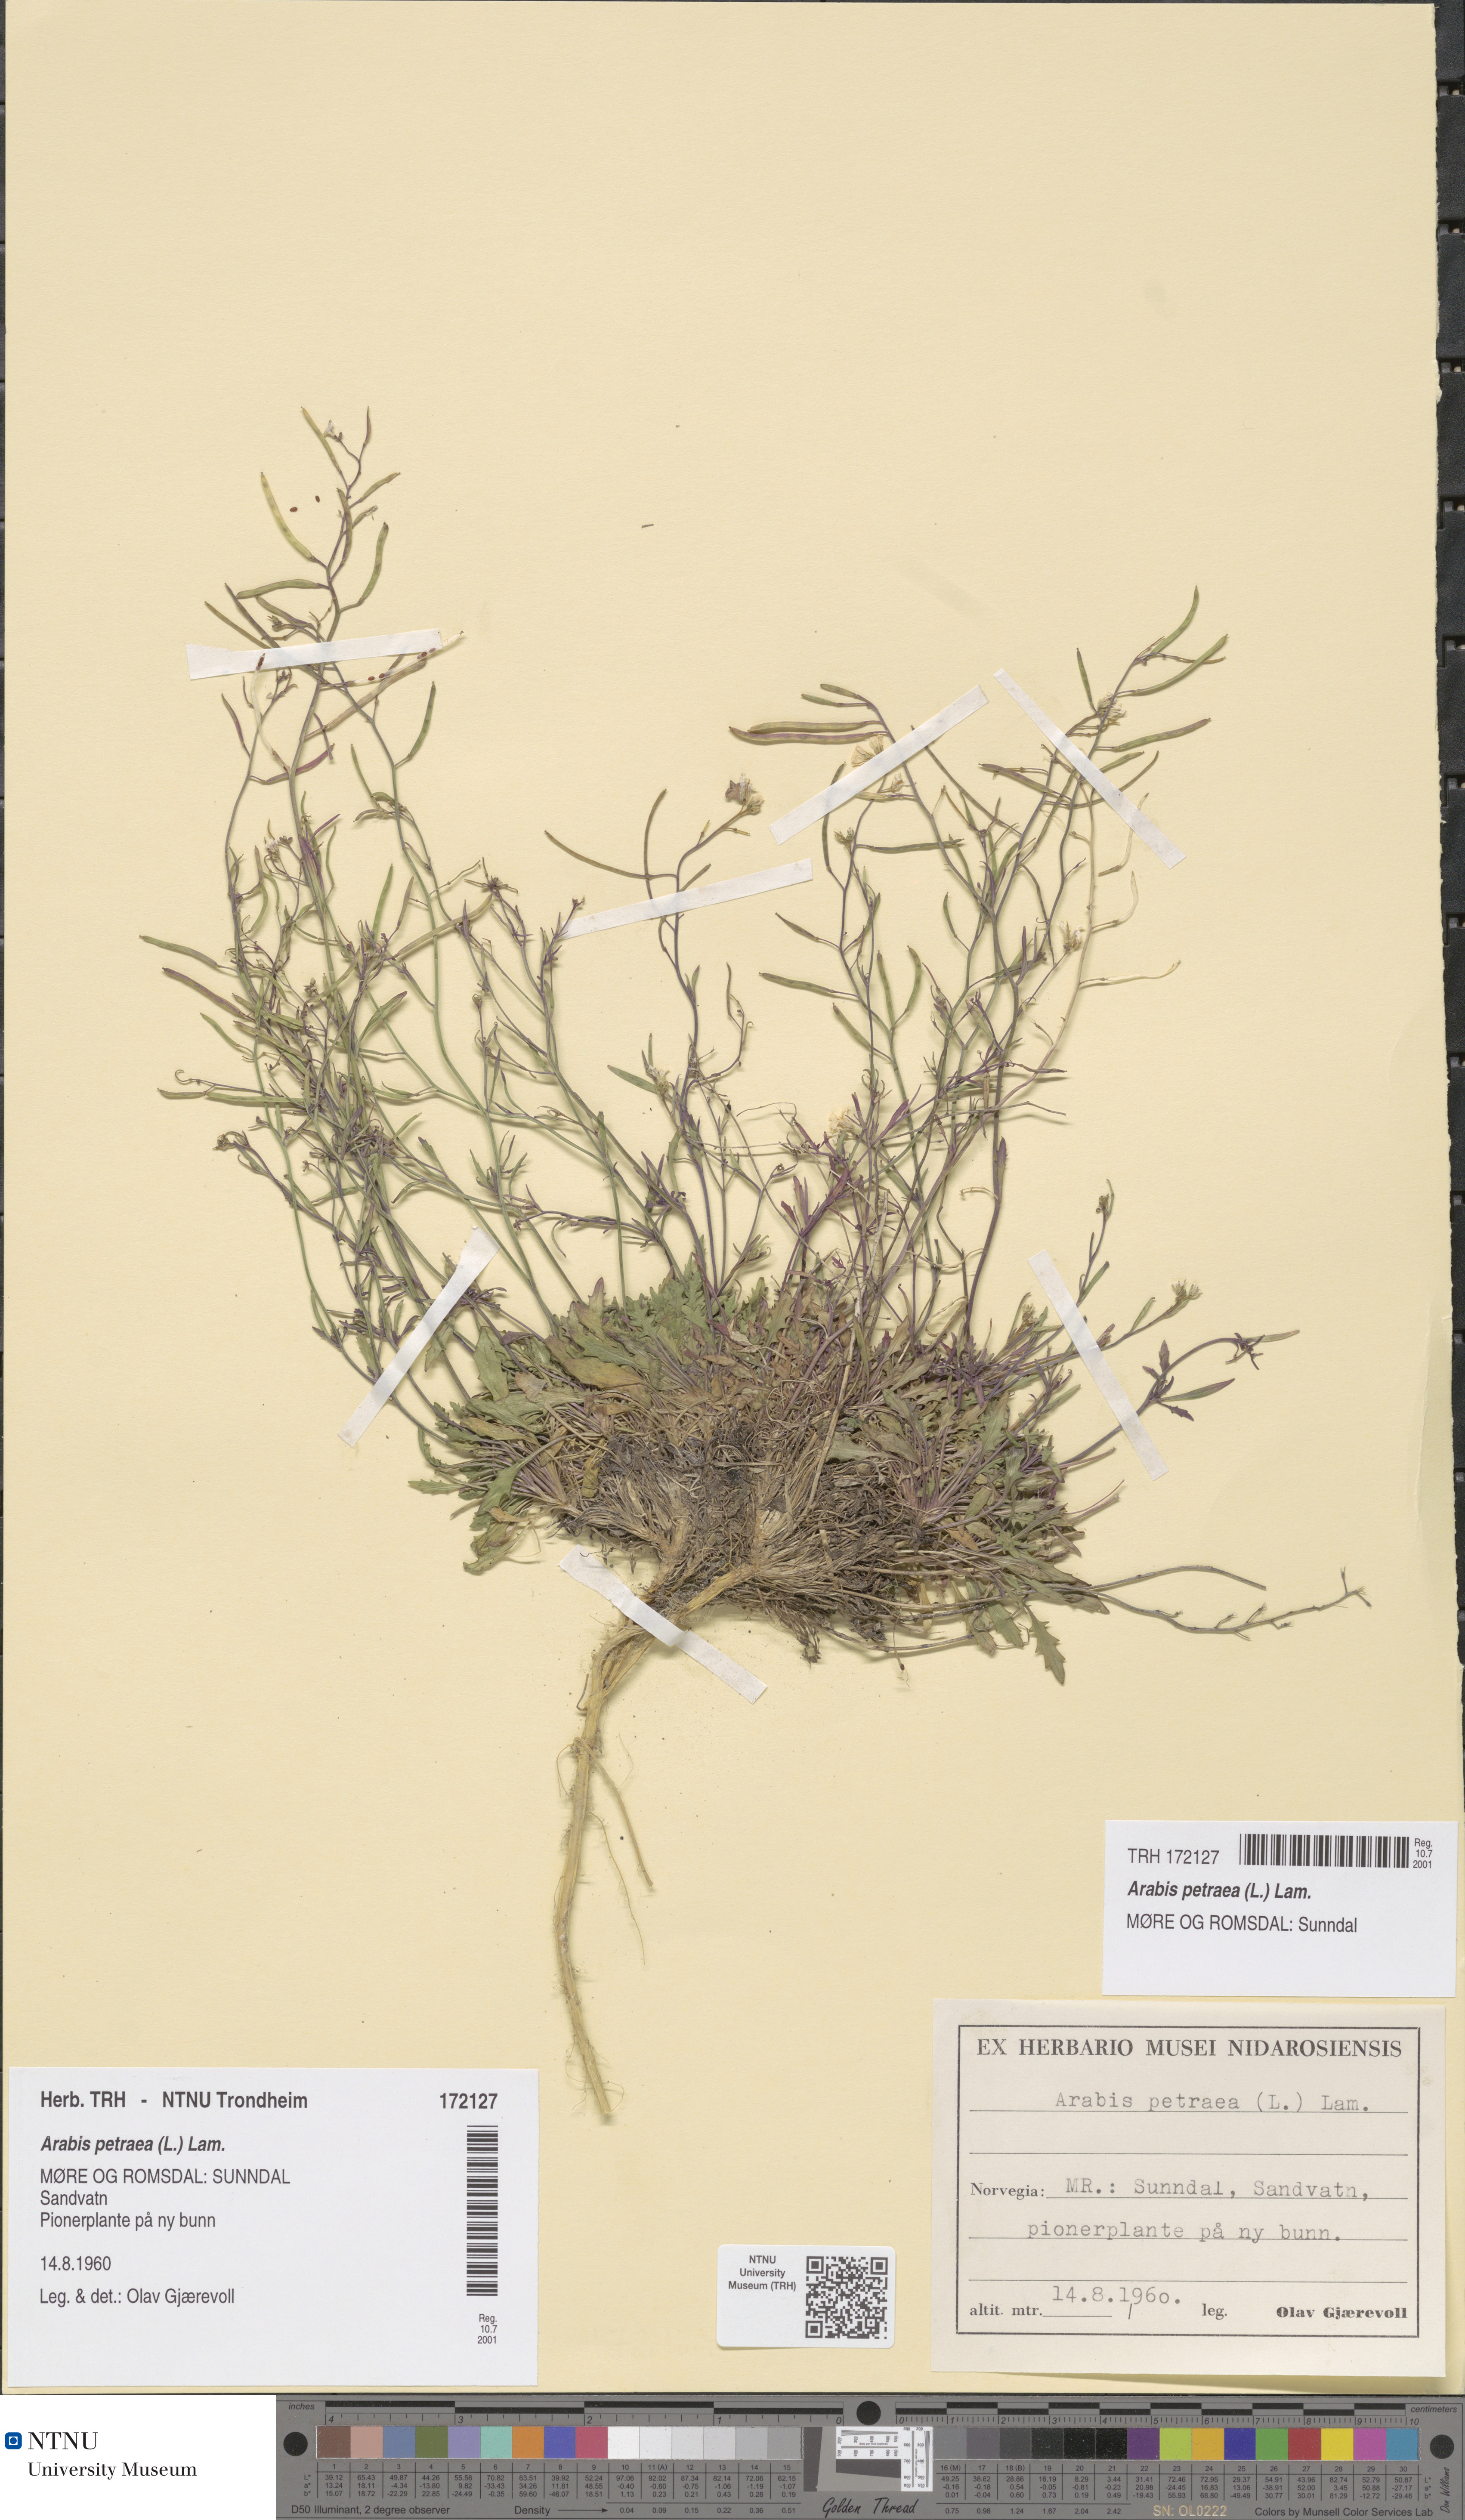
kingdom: Plantae
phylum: Tracheophyta
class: Magnoliopsida
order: Brassicales
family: Brassicaceae
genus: Arabidopsis
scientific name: Arabidopsis petraea
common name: Northern rock-cress
